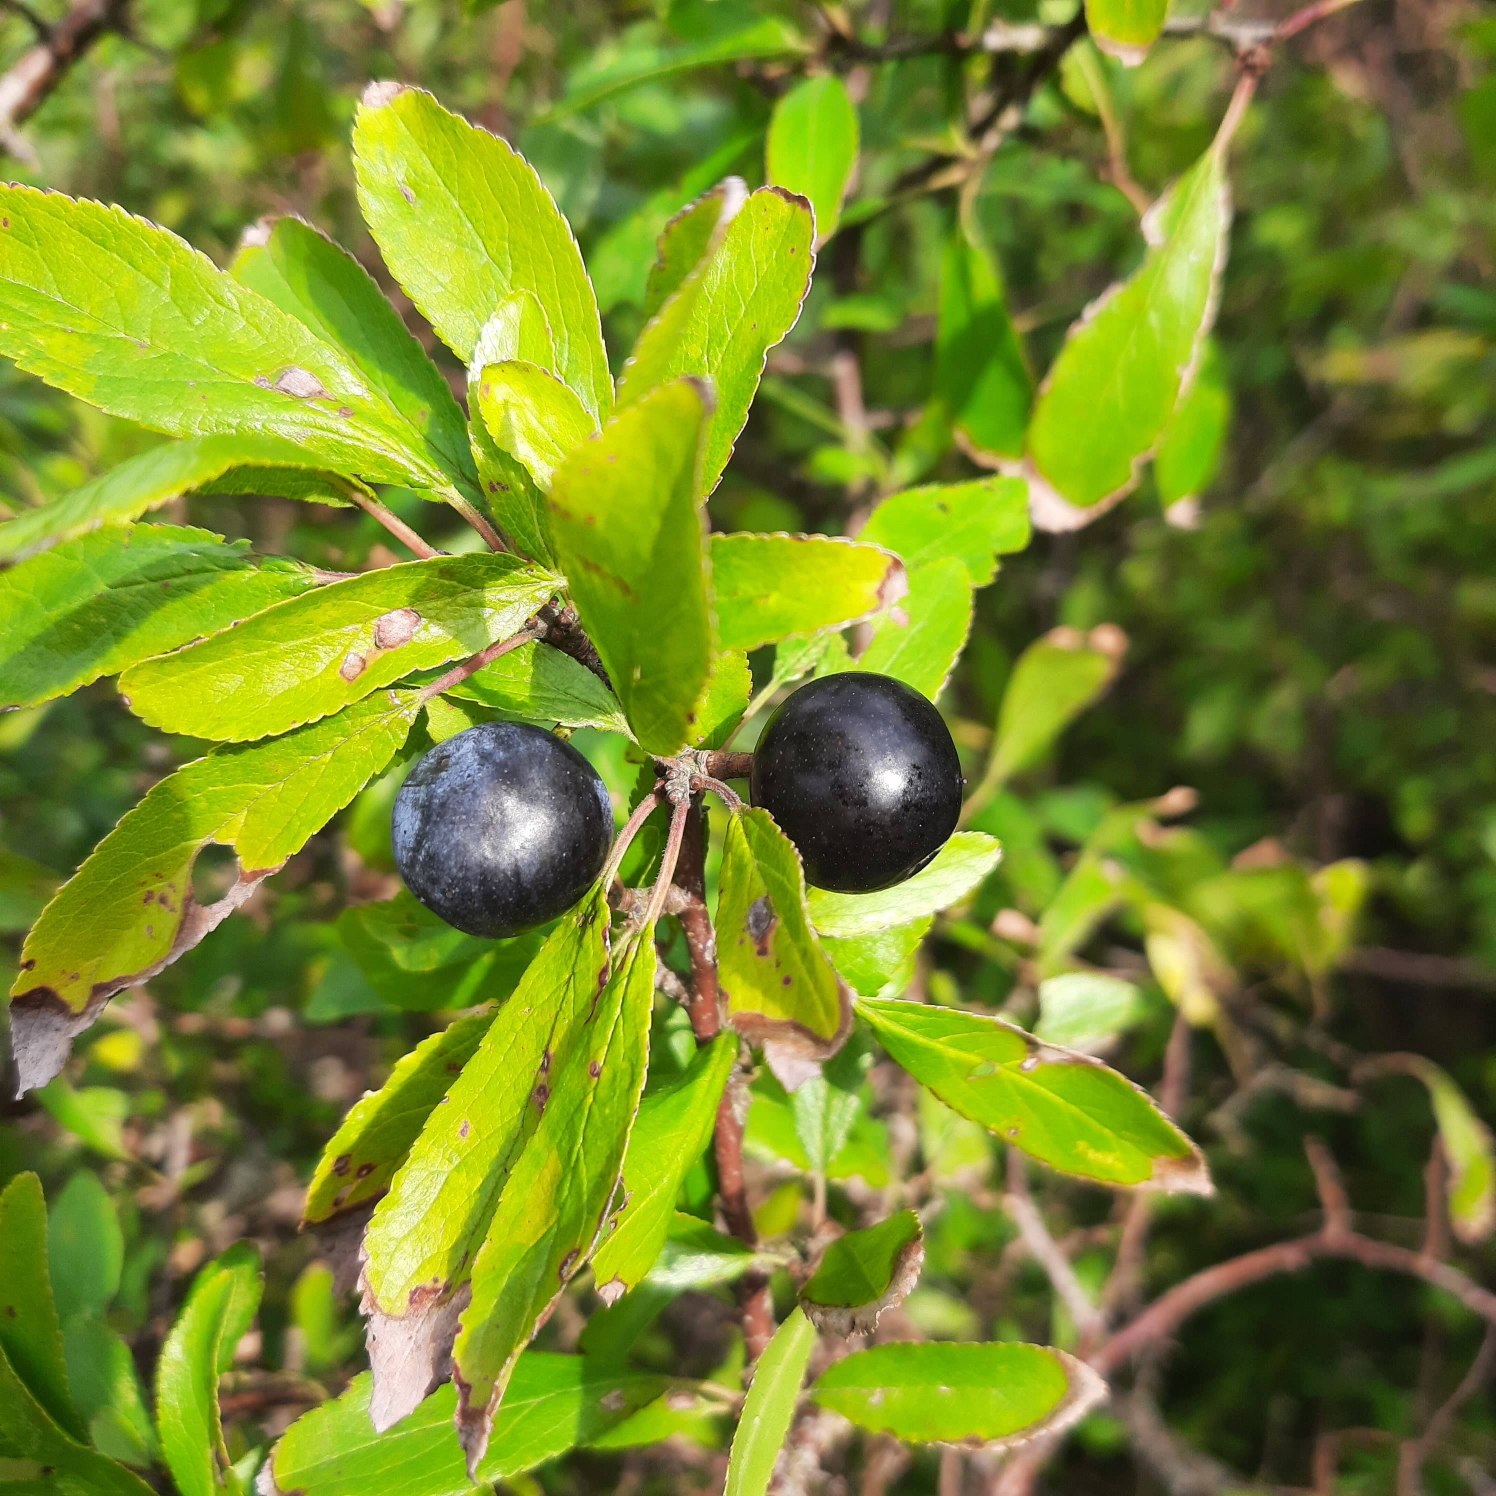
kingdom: Plantae
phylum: Tracheophyta
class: Magnoliopsida
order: Rosales
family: Rosaceae
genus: Prunus
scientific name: Prunus spinosa
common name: Slåen
